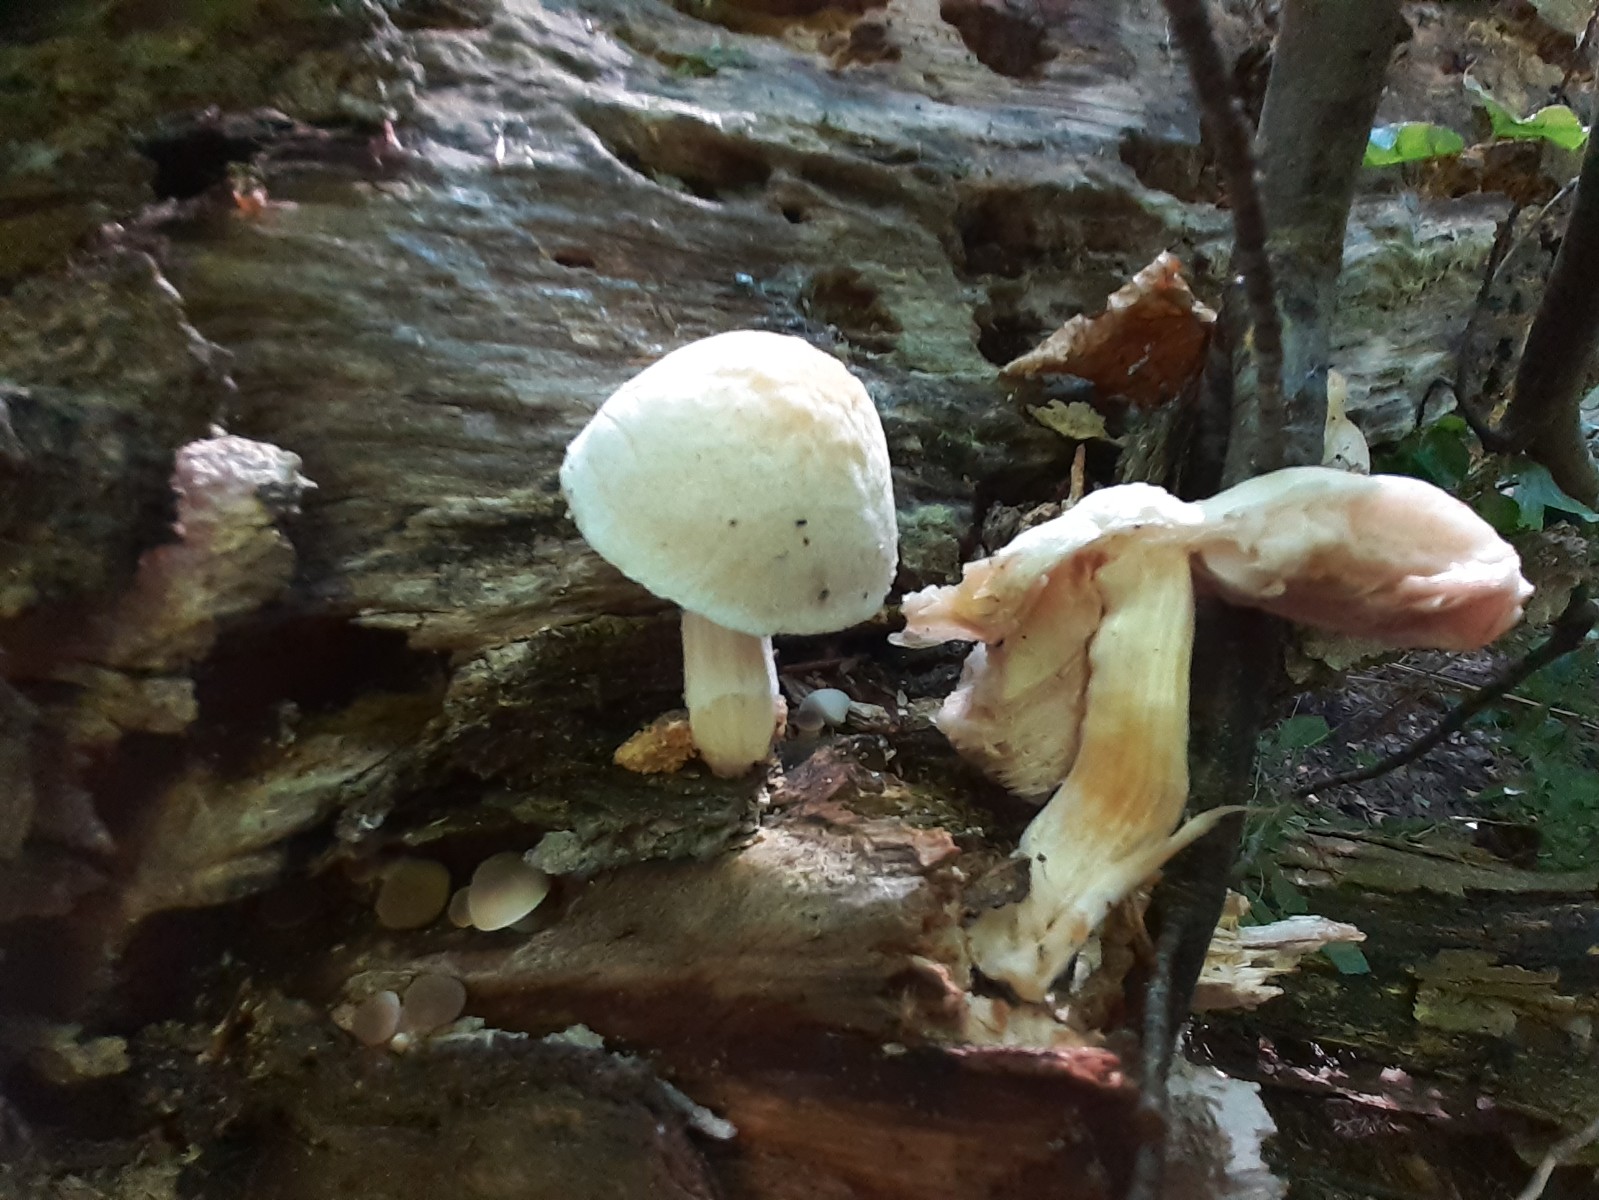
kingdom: Fungi
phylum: Basidiomycota
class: Agaricomycetes
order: Agaricales
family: Pluteaceae
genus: Pluteus
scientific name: Pluteus
